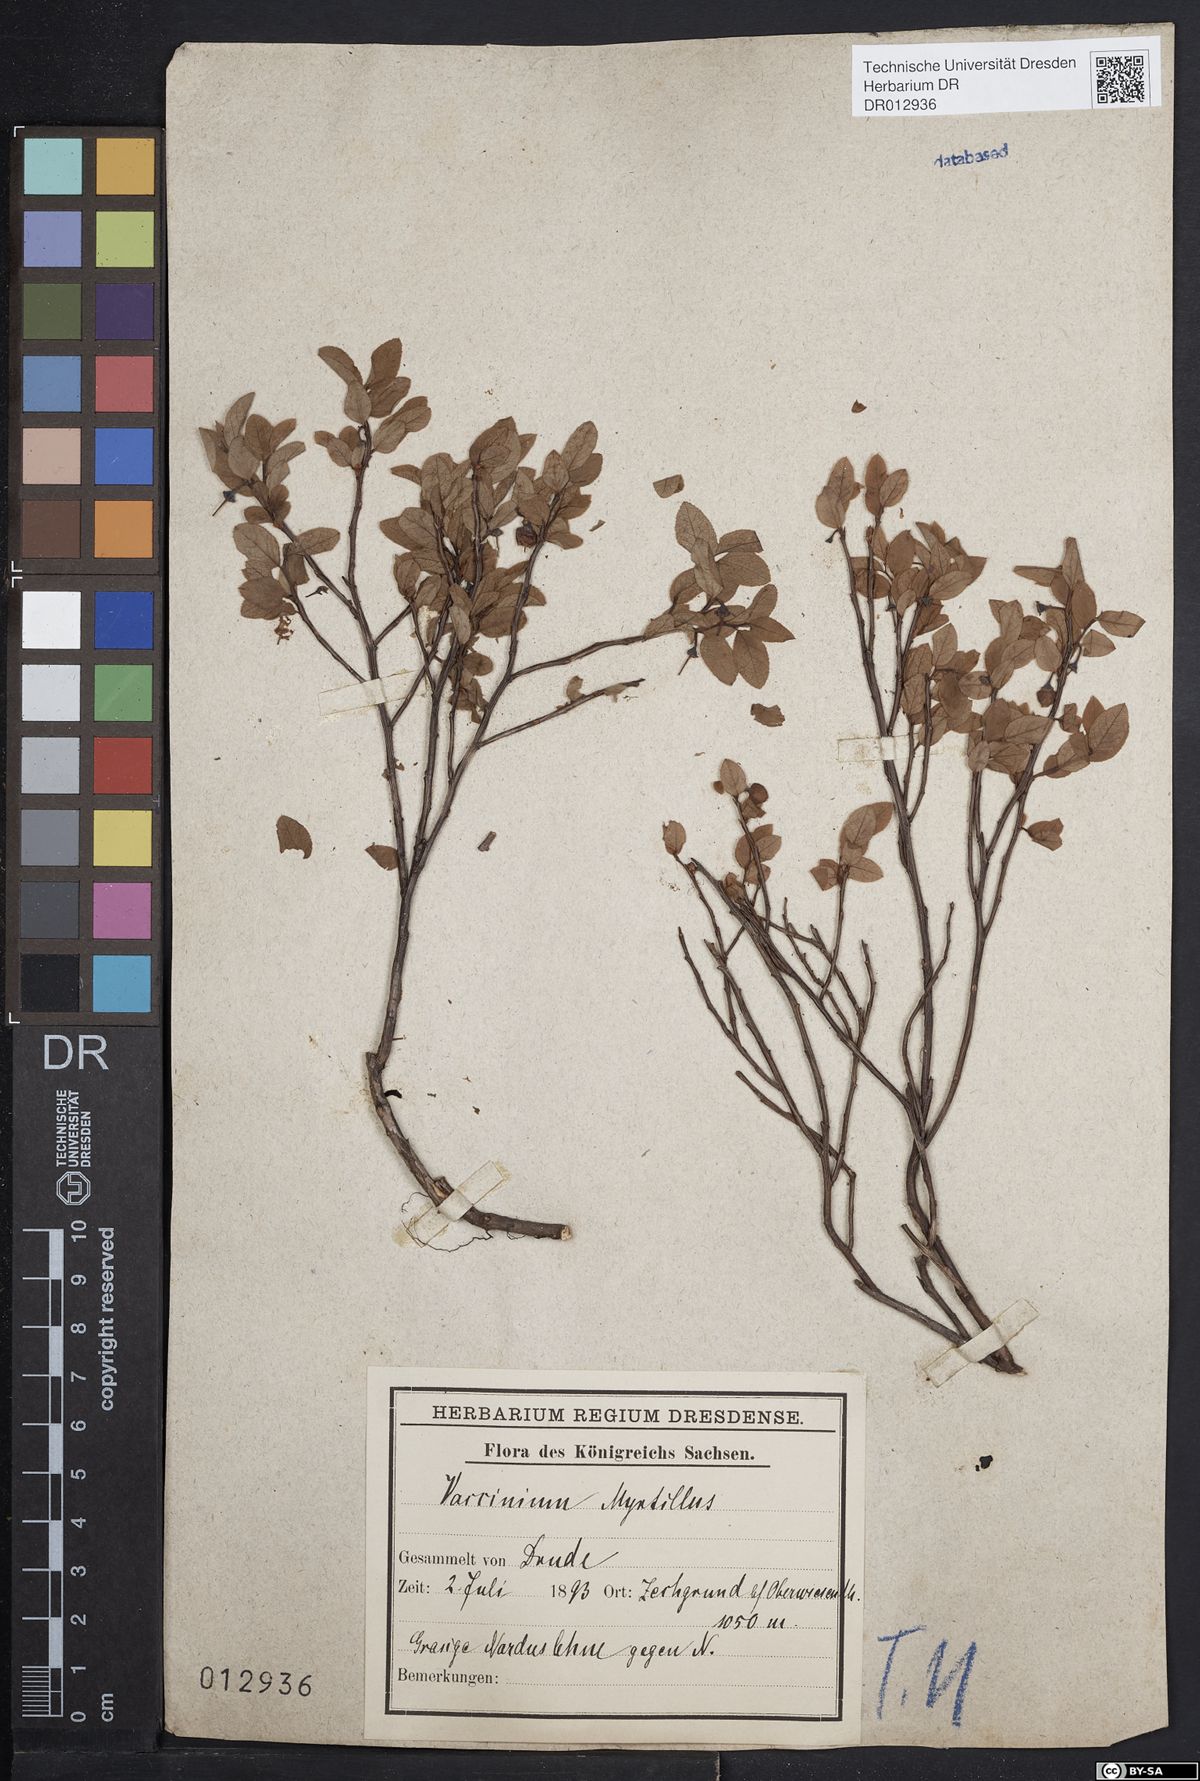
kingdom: Plantae
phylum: Tracheophyta
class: Magnoliopsida
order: Ericales
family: Ericaceae
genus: Vaccinium
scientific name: Vaccinium myrtillus
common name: Bilberry
